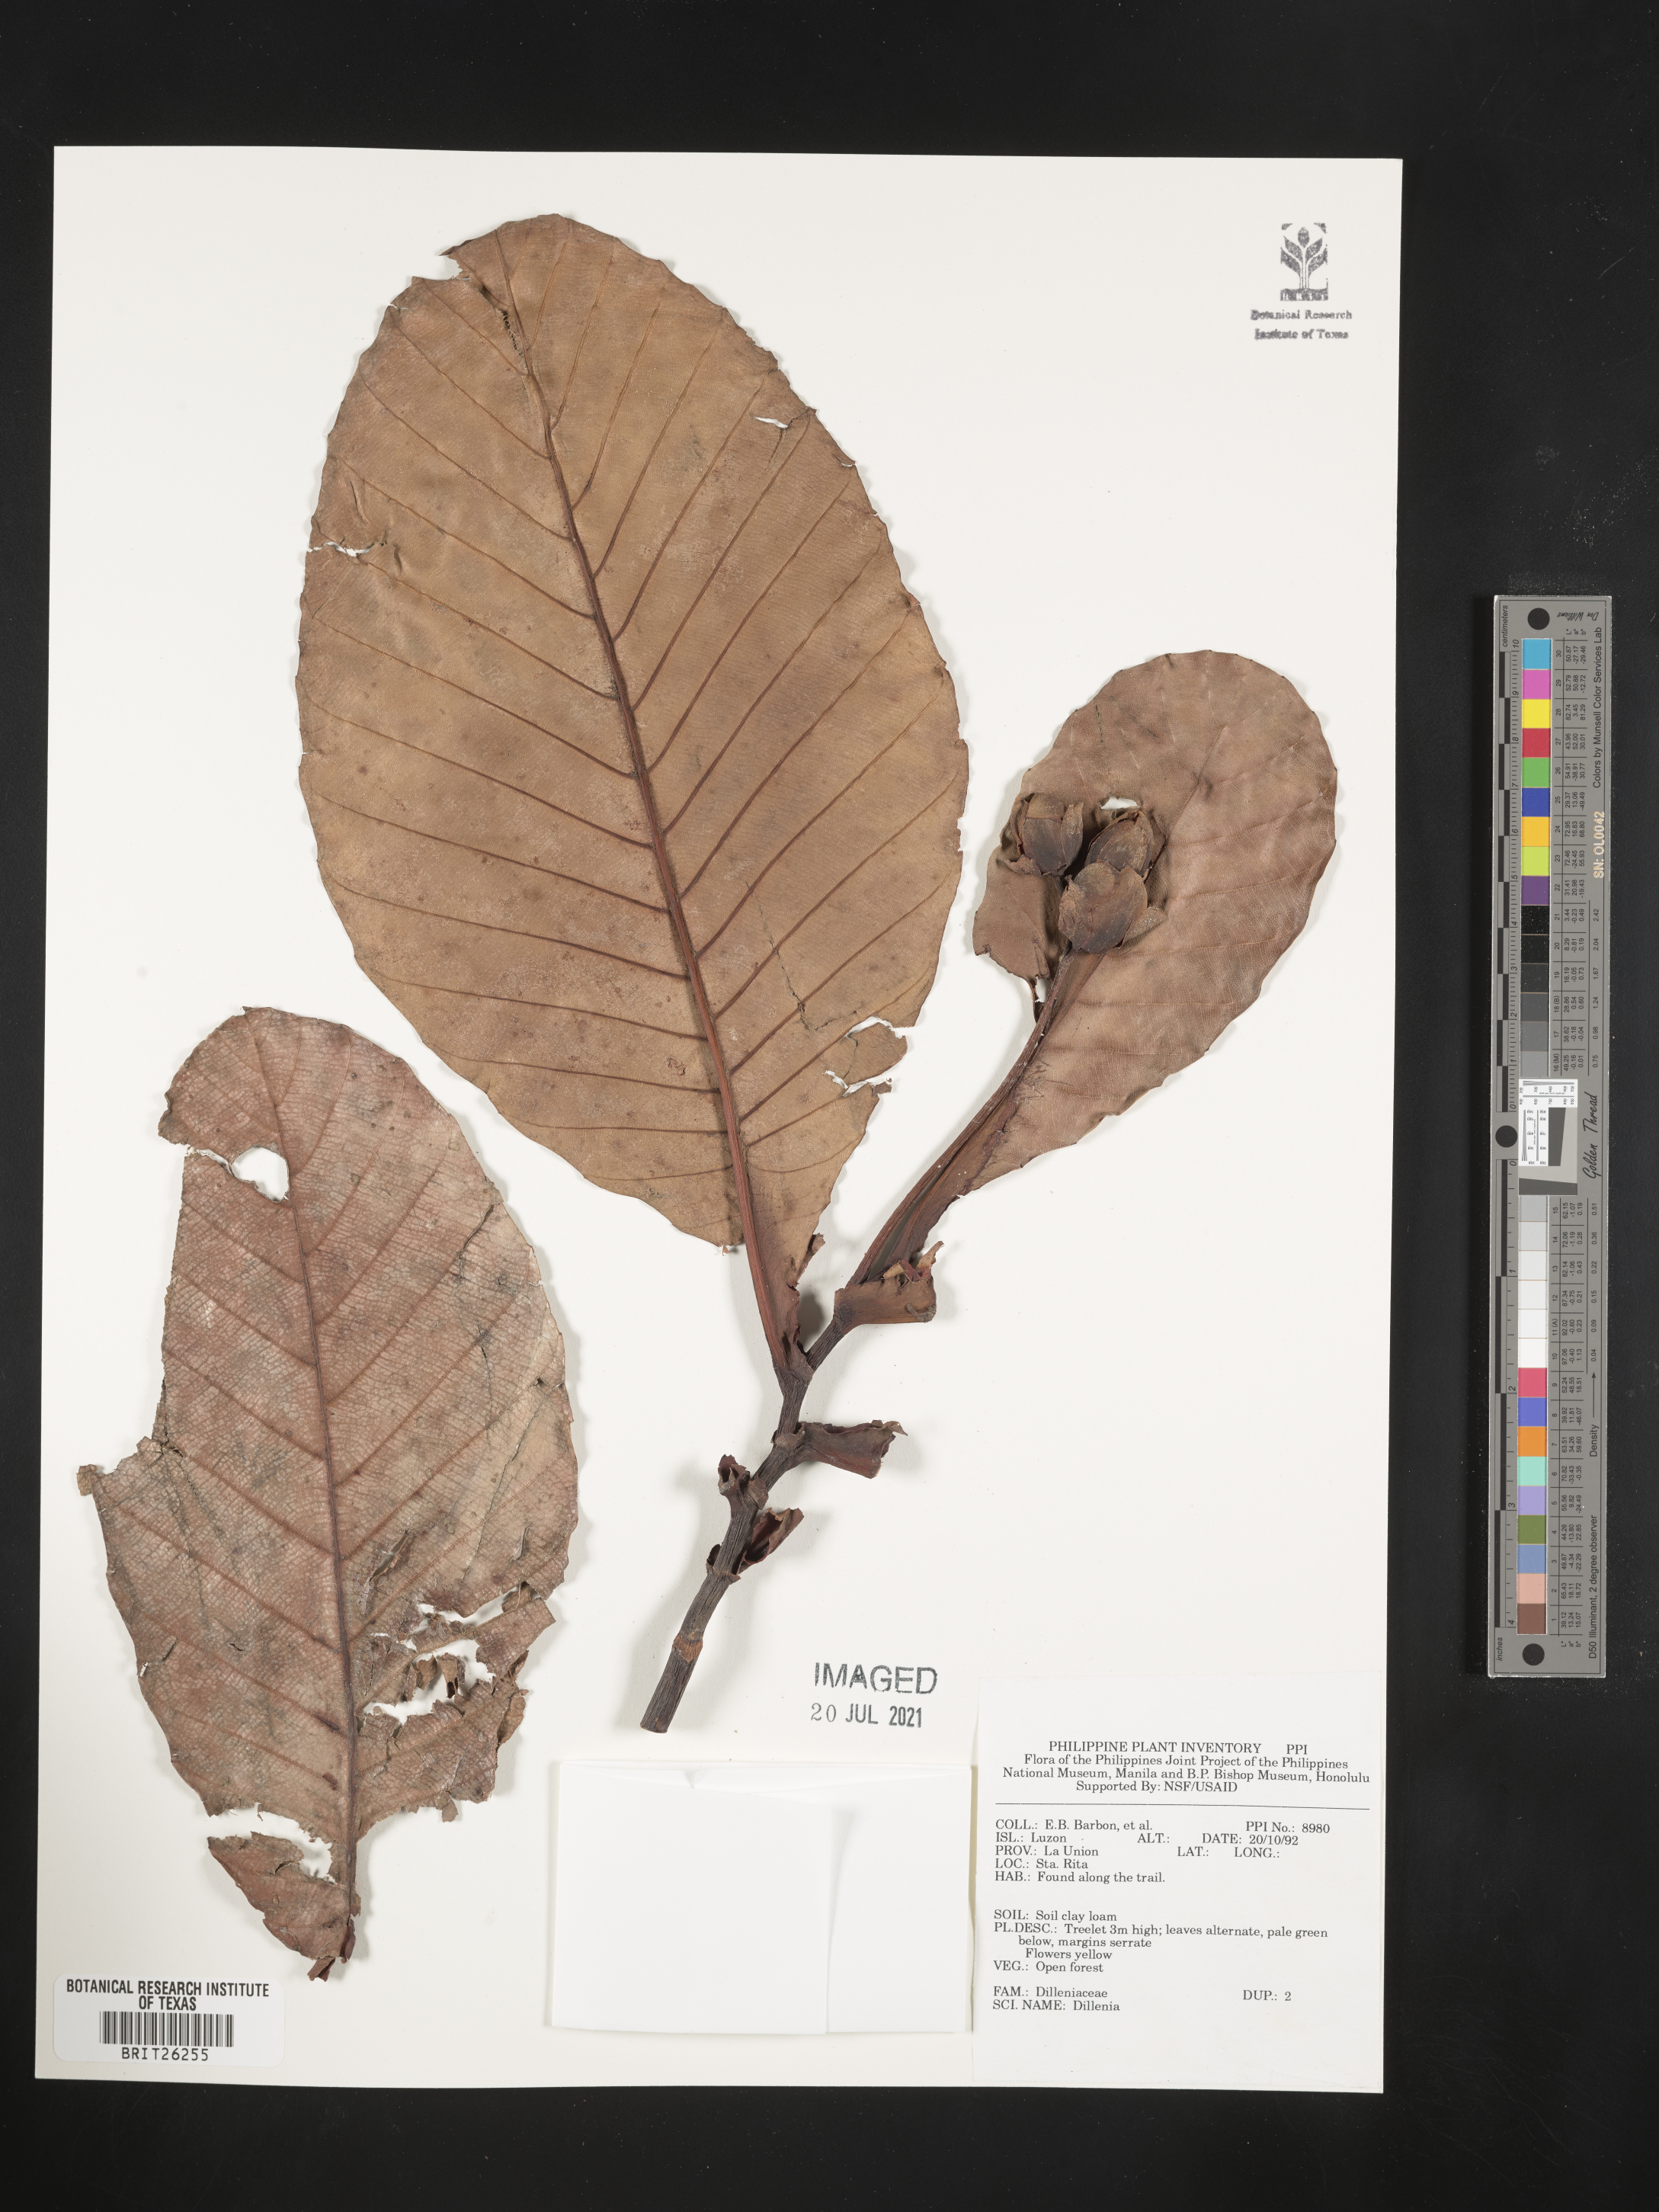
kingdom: Plantae
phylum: Tracheophyta
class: Magnoliopsida
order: Dilleniales
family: Dilleniaceae
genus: Dillenia
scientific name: Dillenia
